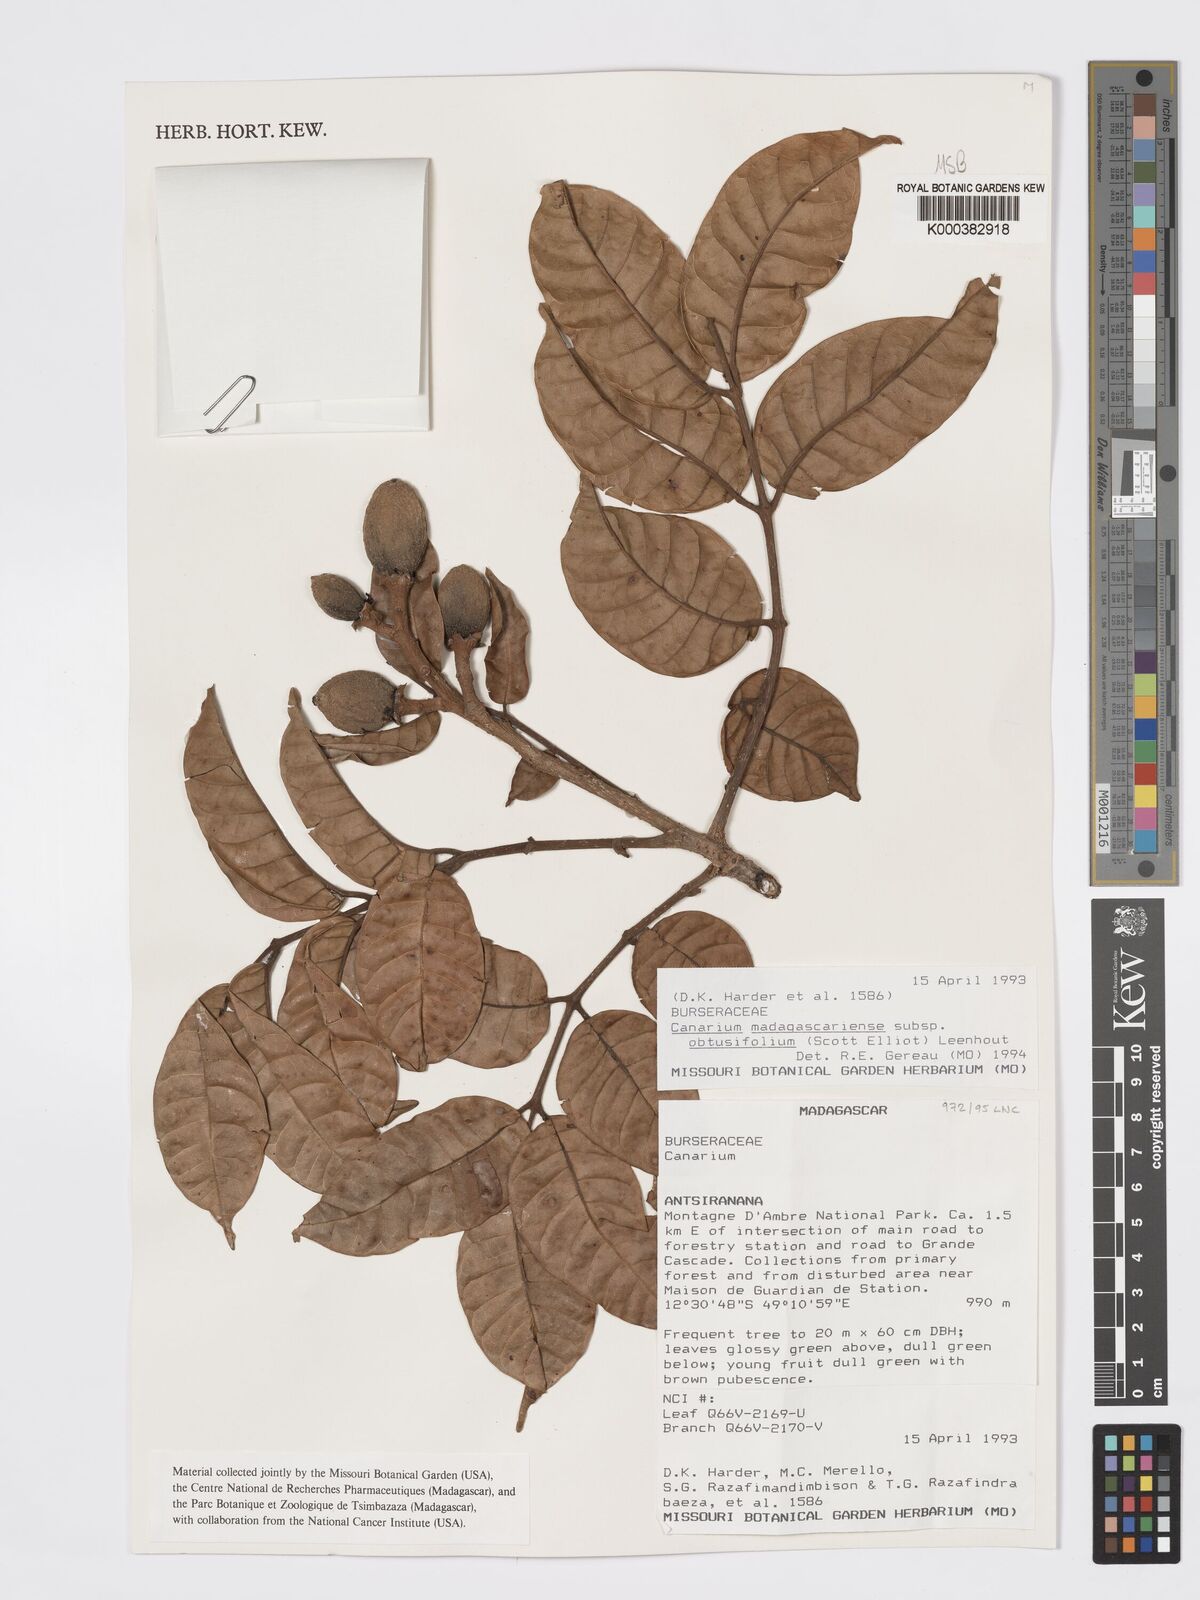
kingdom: Plantae
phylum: Tracheophyta
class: Magnoliopsida
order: Sapindales
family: Burseraceae
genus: Canarium
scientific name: Canarium madagascariense
